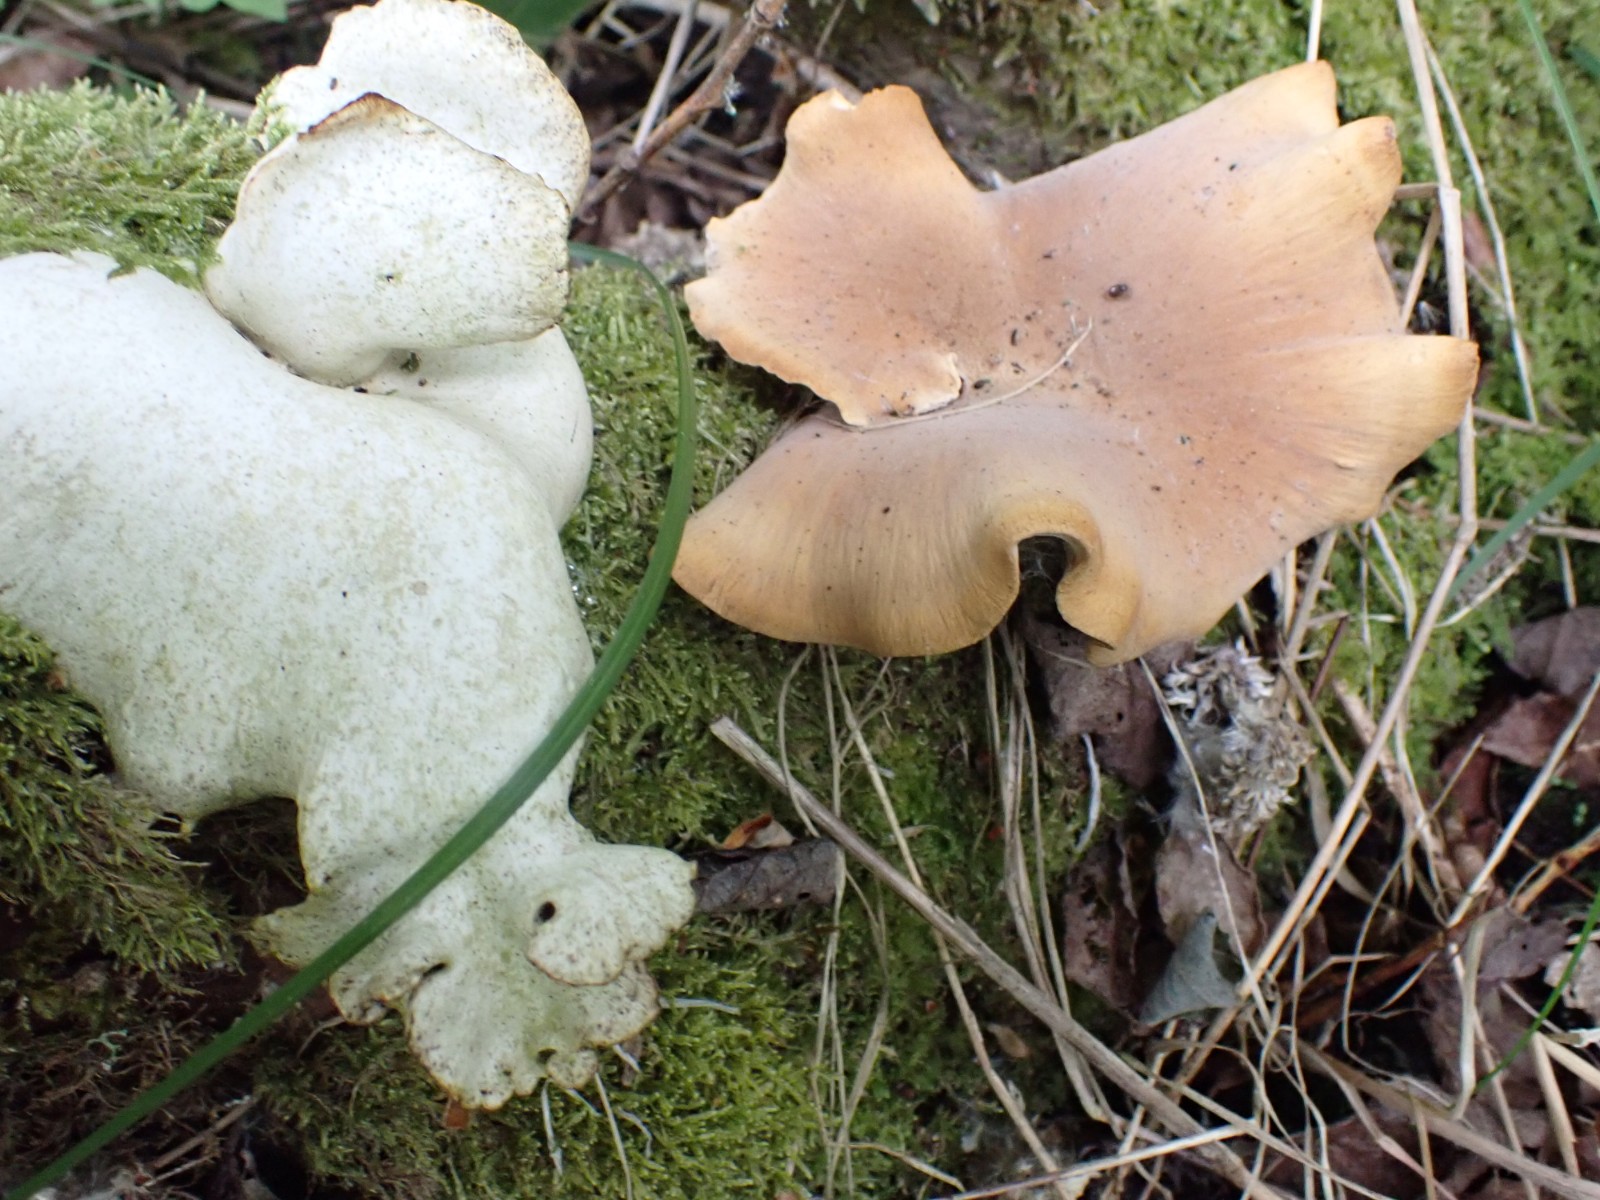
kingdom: Fungi
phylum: Basidiomycota
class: Agaricomycetes
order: Polyporales
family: Polyporaceae
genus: Cerioporus
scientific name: Cerioporus varius
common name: foranderlig stilkporesvamp
